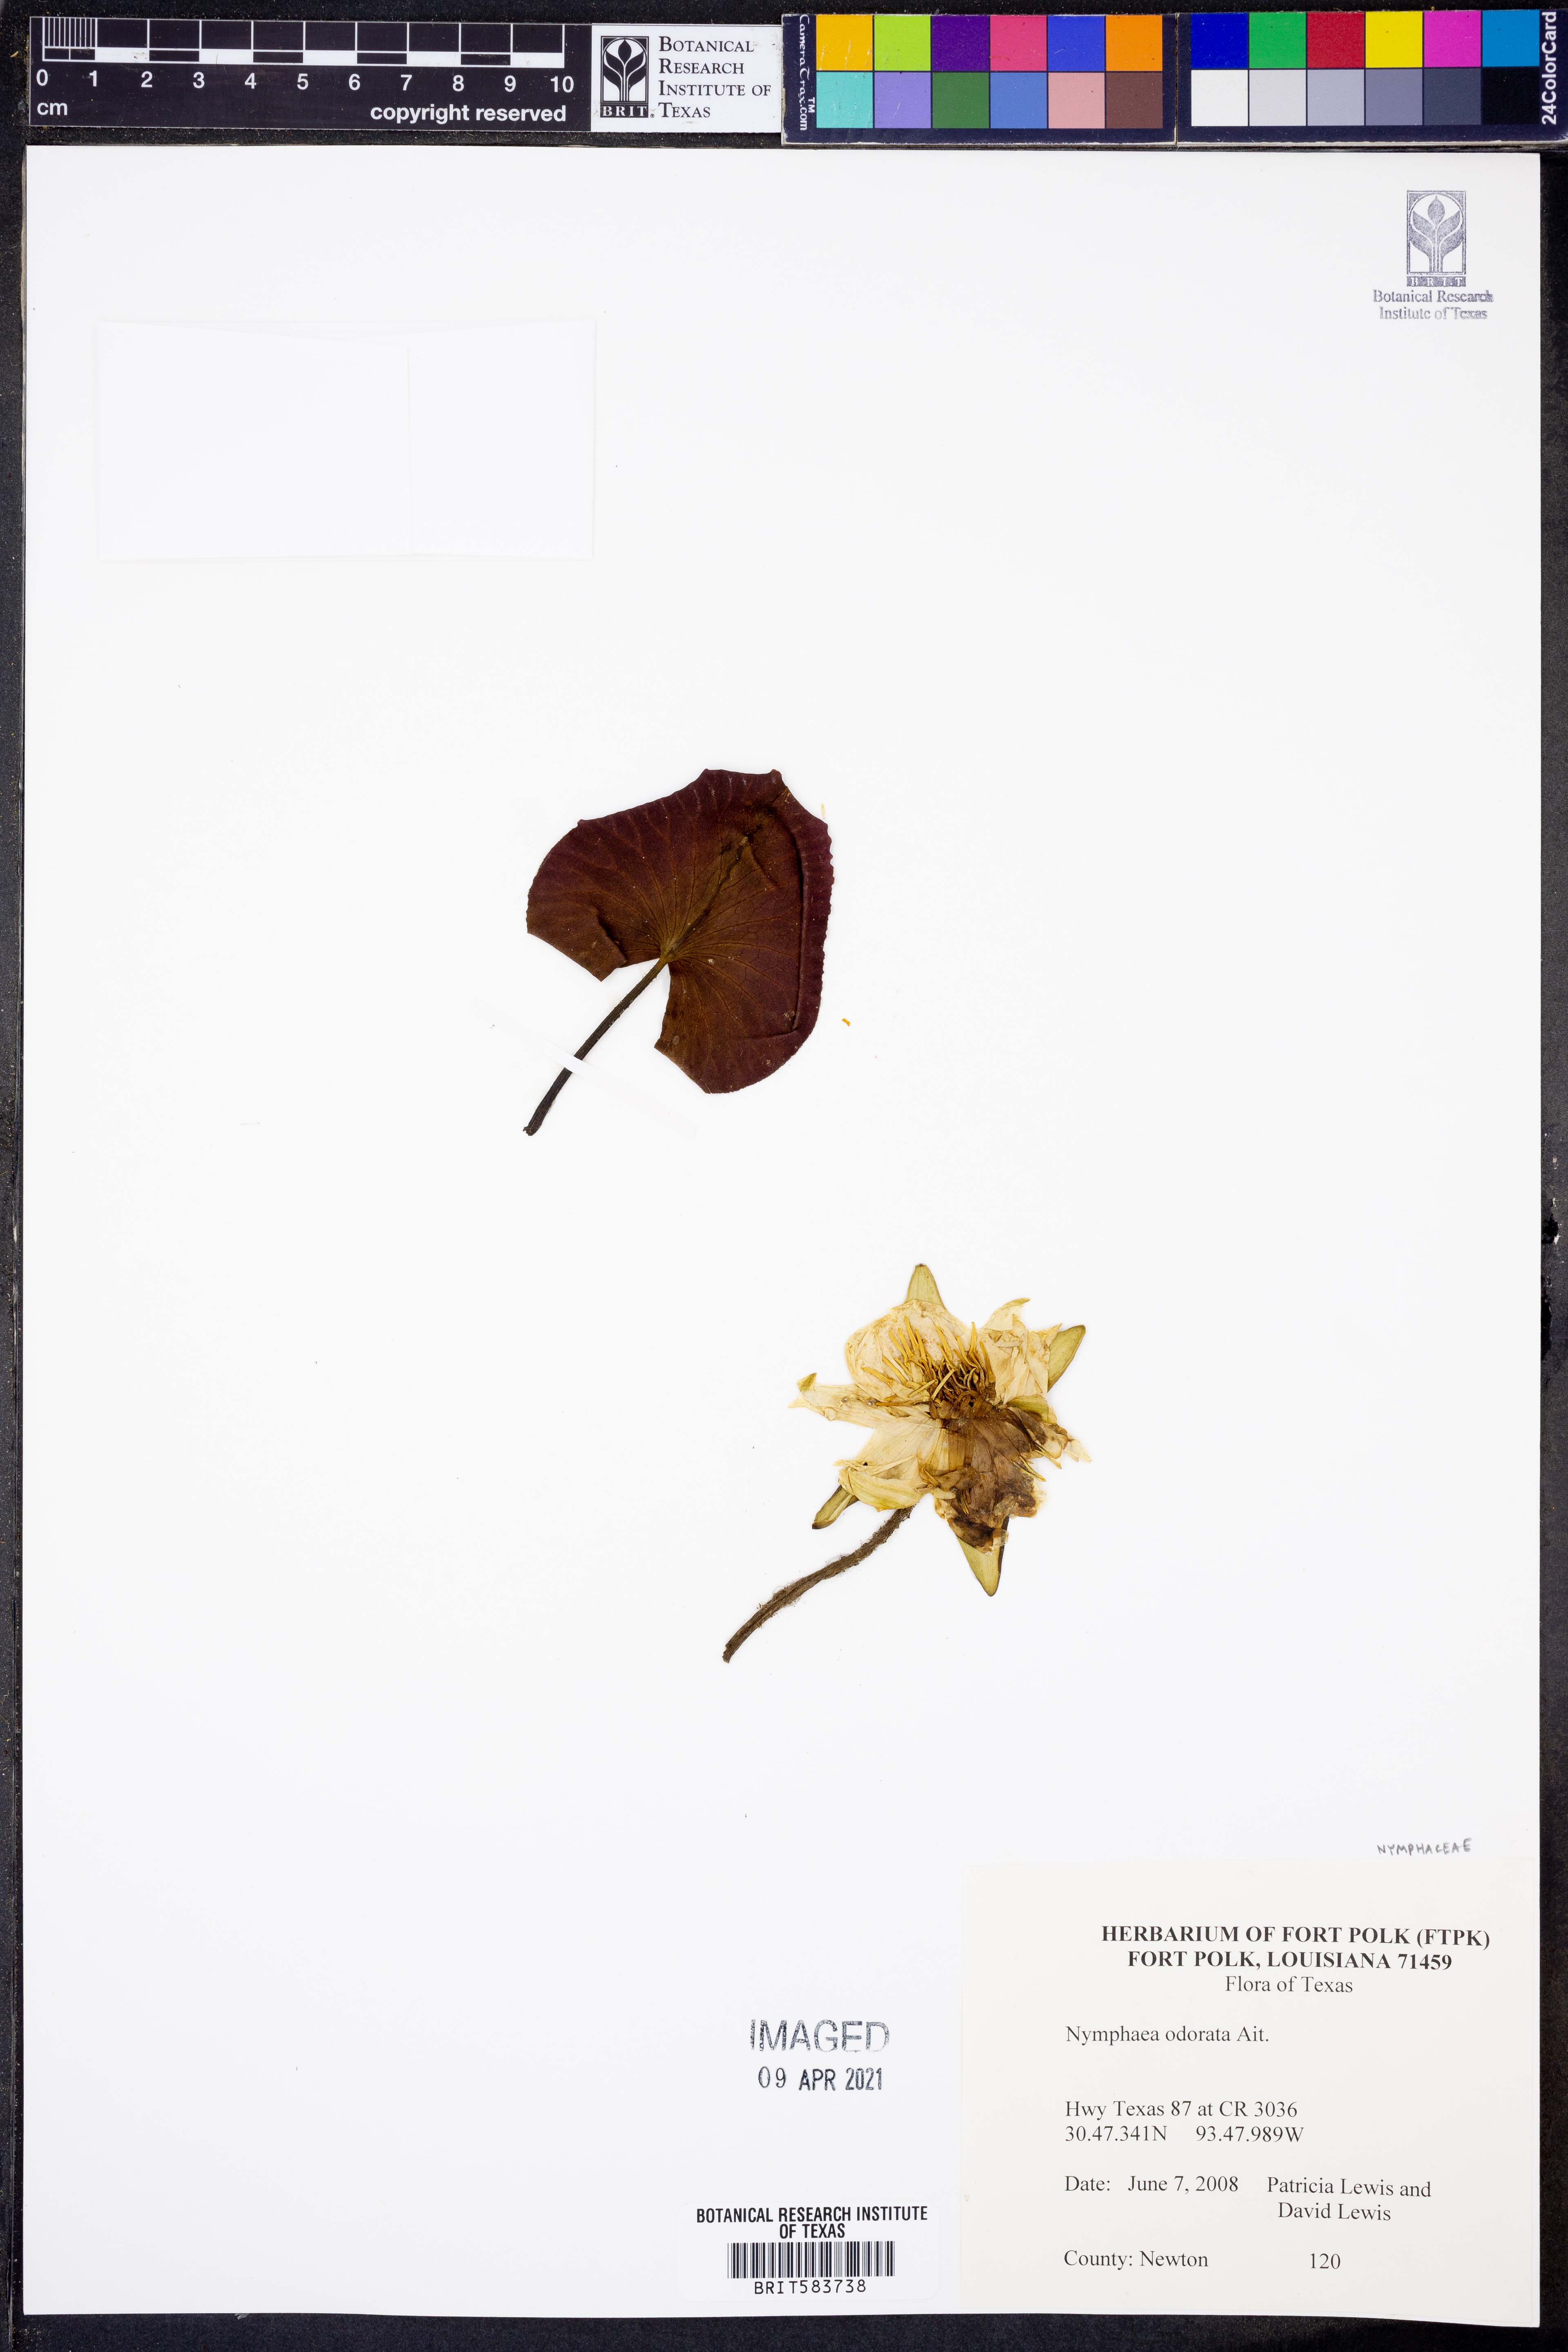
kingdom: Plantae
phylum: Tracheophyta
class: Magnoliopsida
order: Nymphaeales
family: Nymphaeaceae
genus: Nymphaea
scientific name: Nymphaea odorata
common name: Fragrant water-lily
